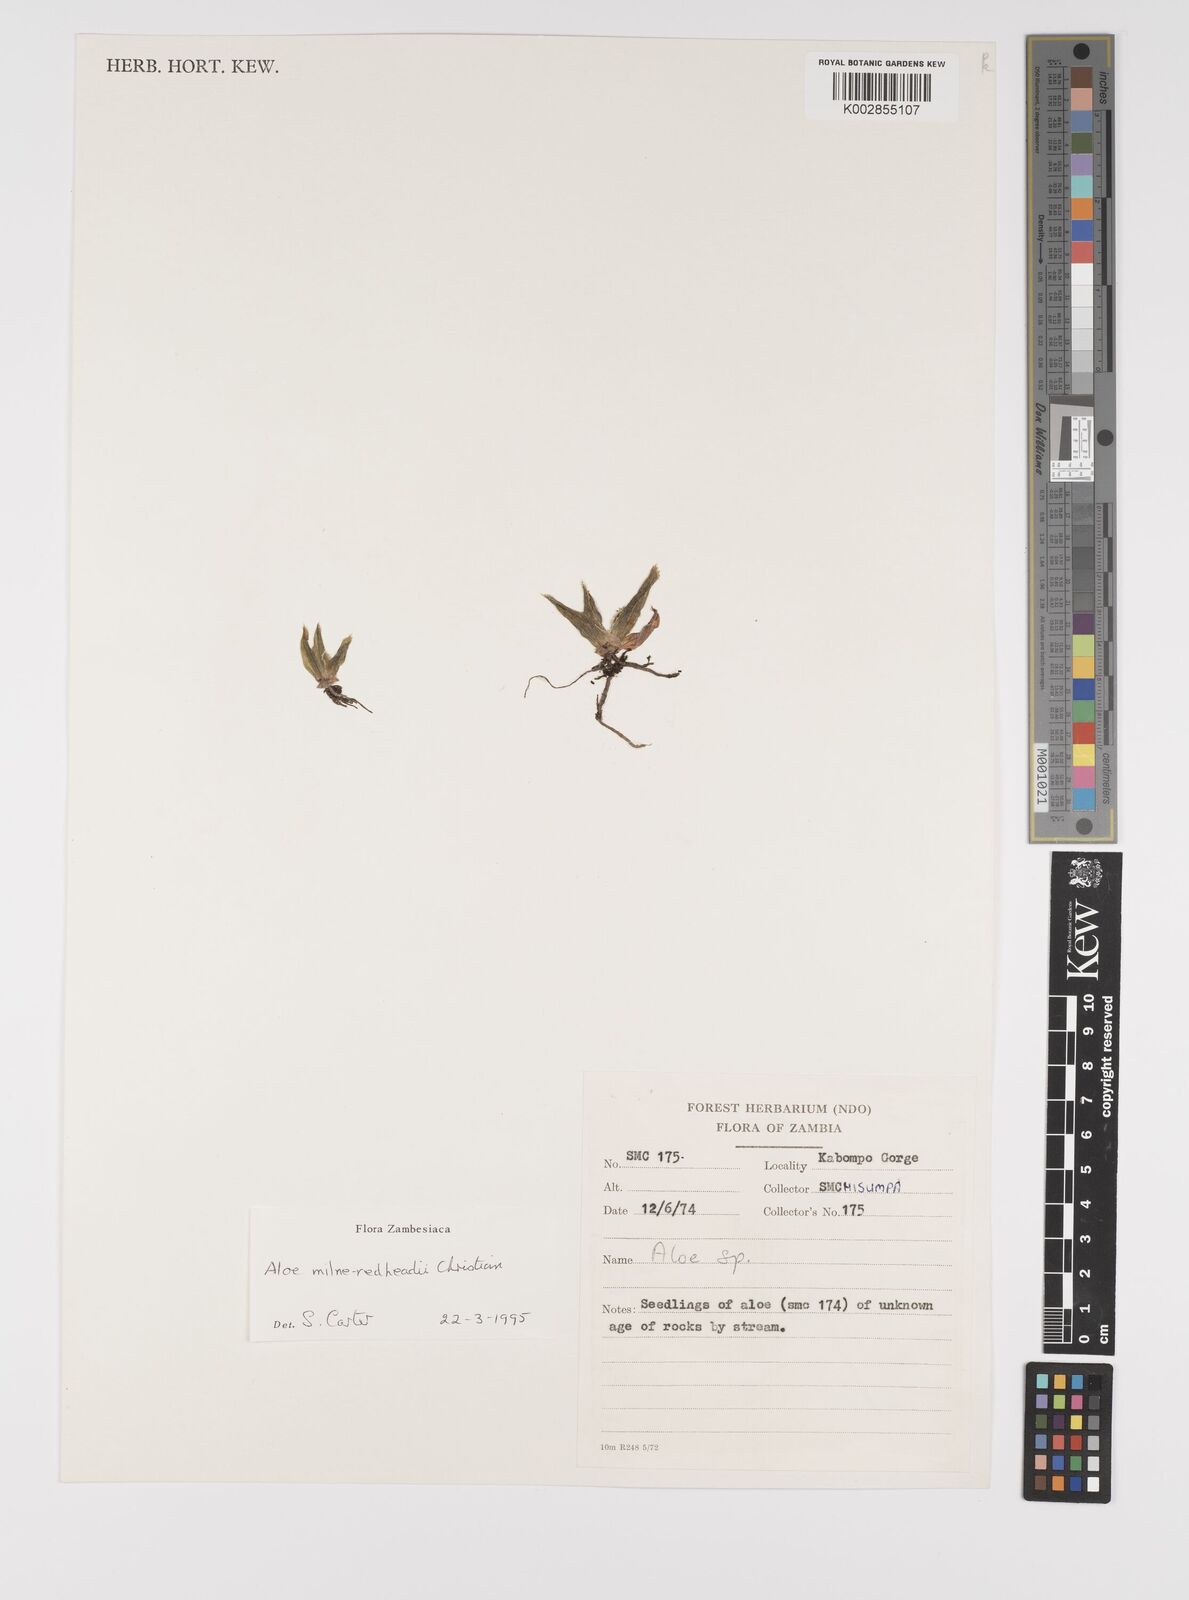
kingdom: Plantae
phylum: Tracheophyta
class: Liliopsida
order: Asparagales
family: Asphodelaceae
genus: Aloe
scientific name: Aloe milne-redheadii
